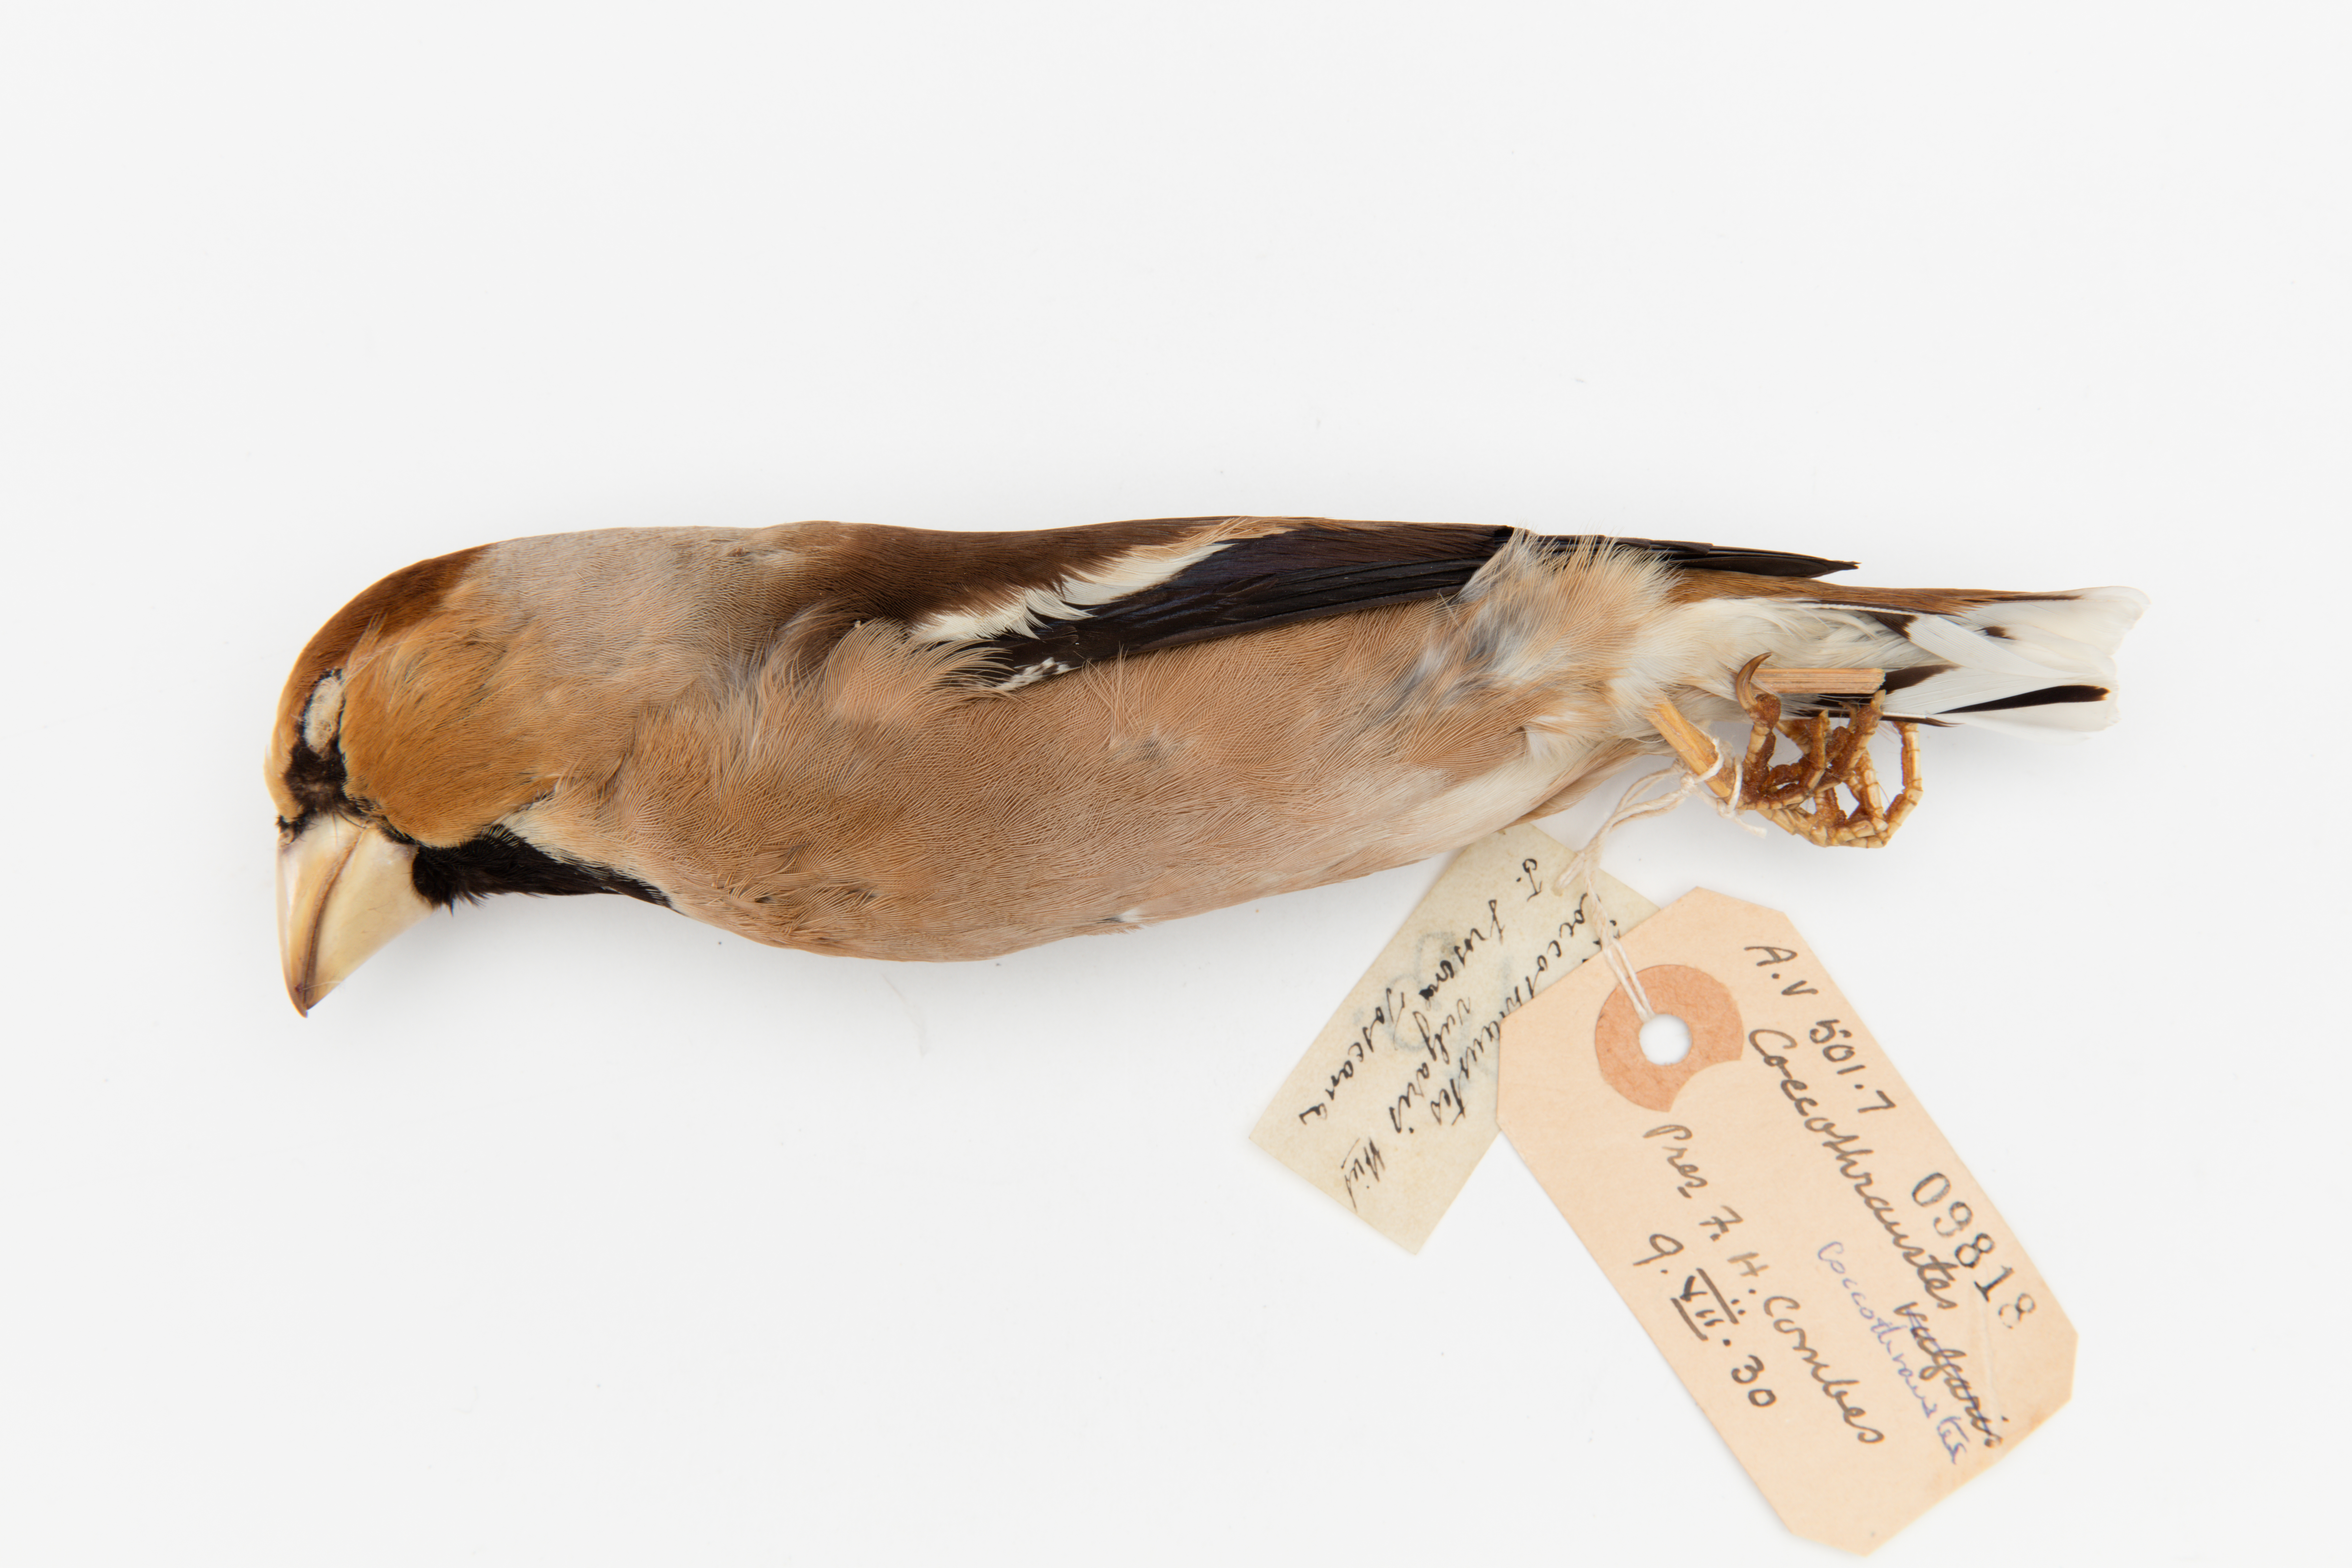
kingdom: Animalia
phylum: Chordata
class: Aves
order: Passeriformes
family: Fringillidae
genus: Coccothraustes
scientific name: Coccothraustes coccothraustes
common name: Hawfinch
